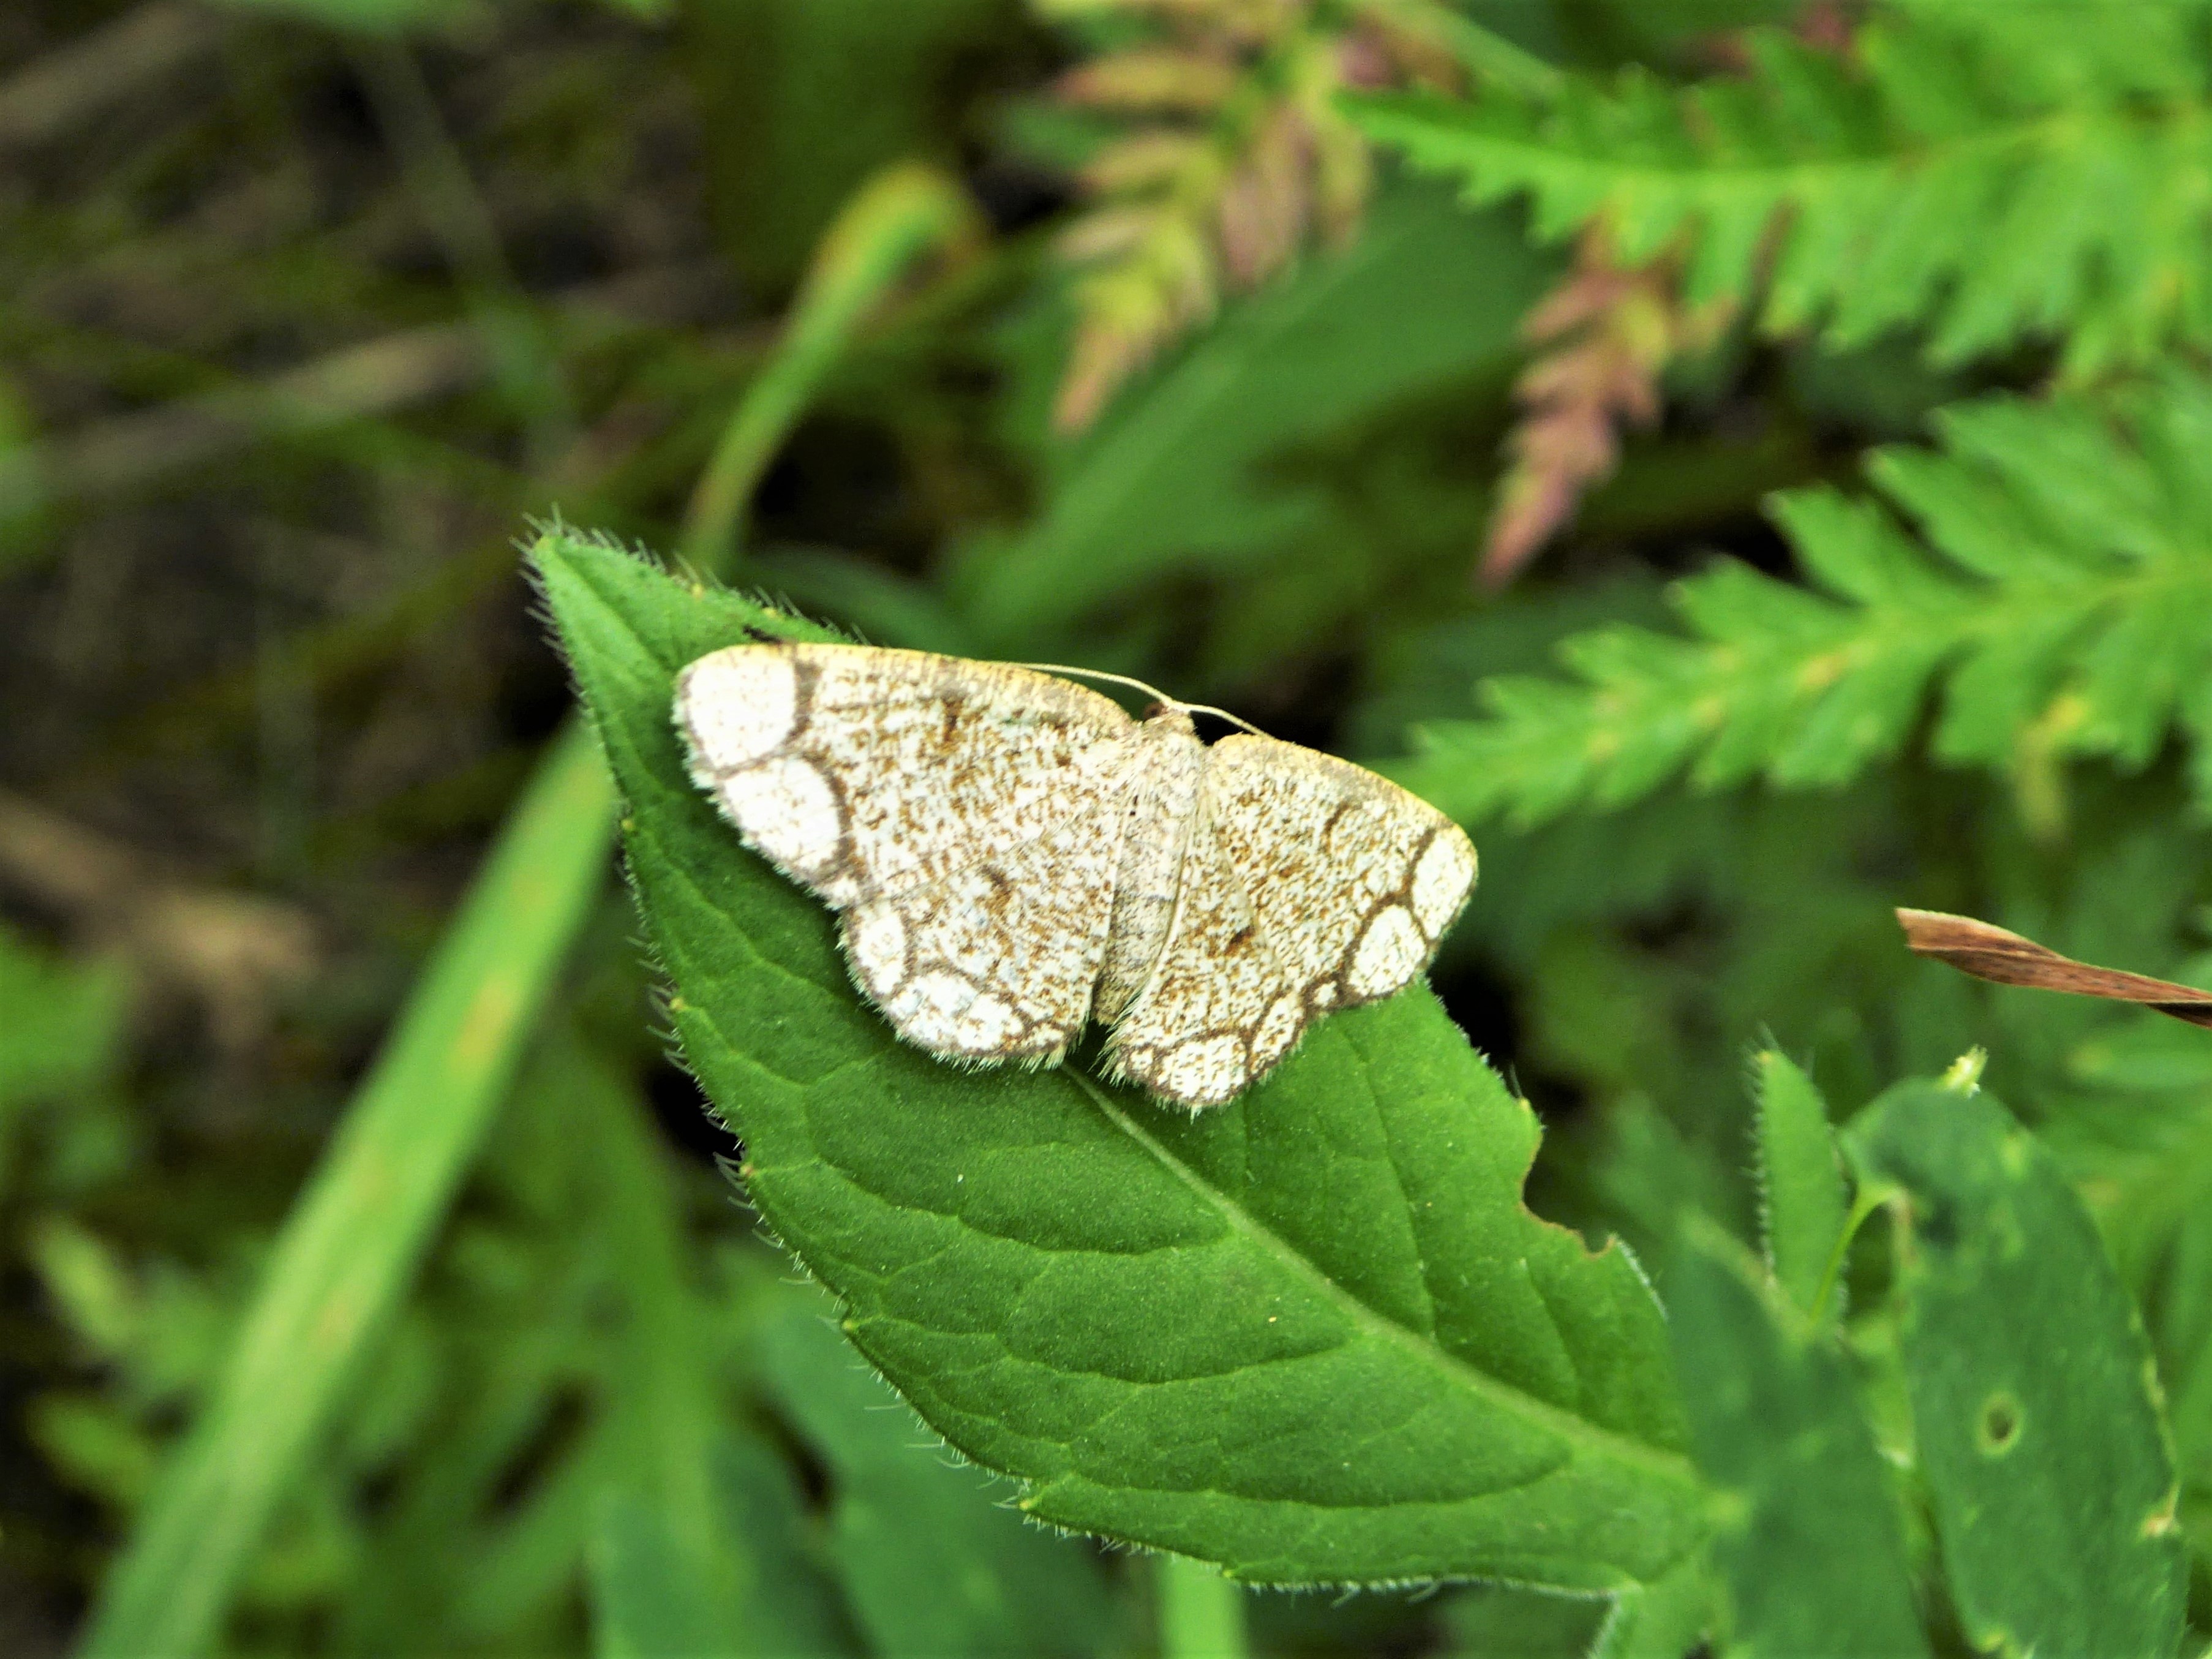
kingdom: Animalia
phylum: Arthropoda
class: Insecta
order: Lepidoptera
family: Geometridae
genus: Stegania
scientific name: Stegania cararia
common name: Ringed border
